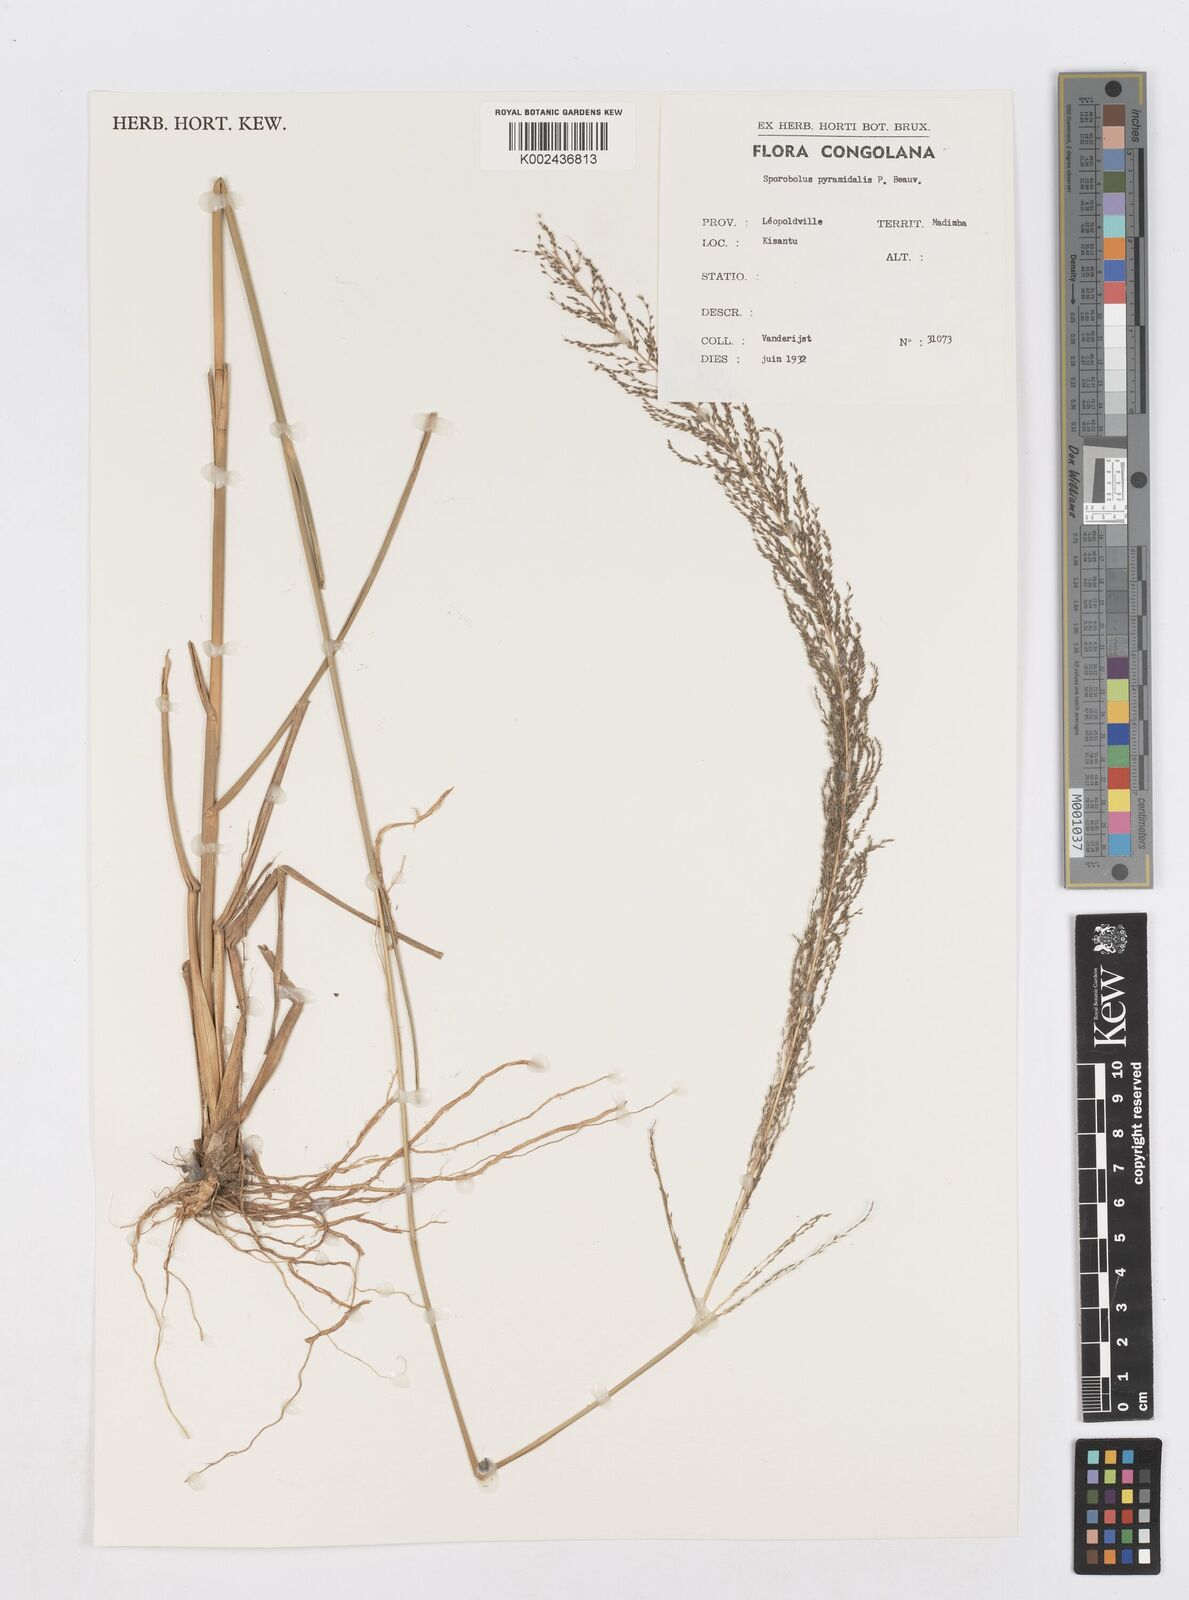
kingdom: Plantae
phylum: Tracheophyta
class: Liliopsida
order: Poales
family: Poaceae
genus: Sporobolus
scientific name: Sporobolus pyramidalis
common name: West indian dropseed
